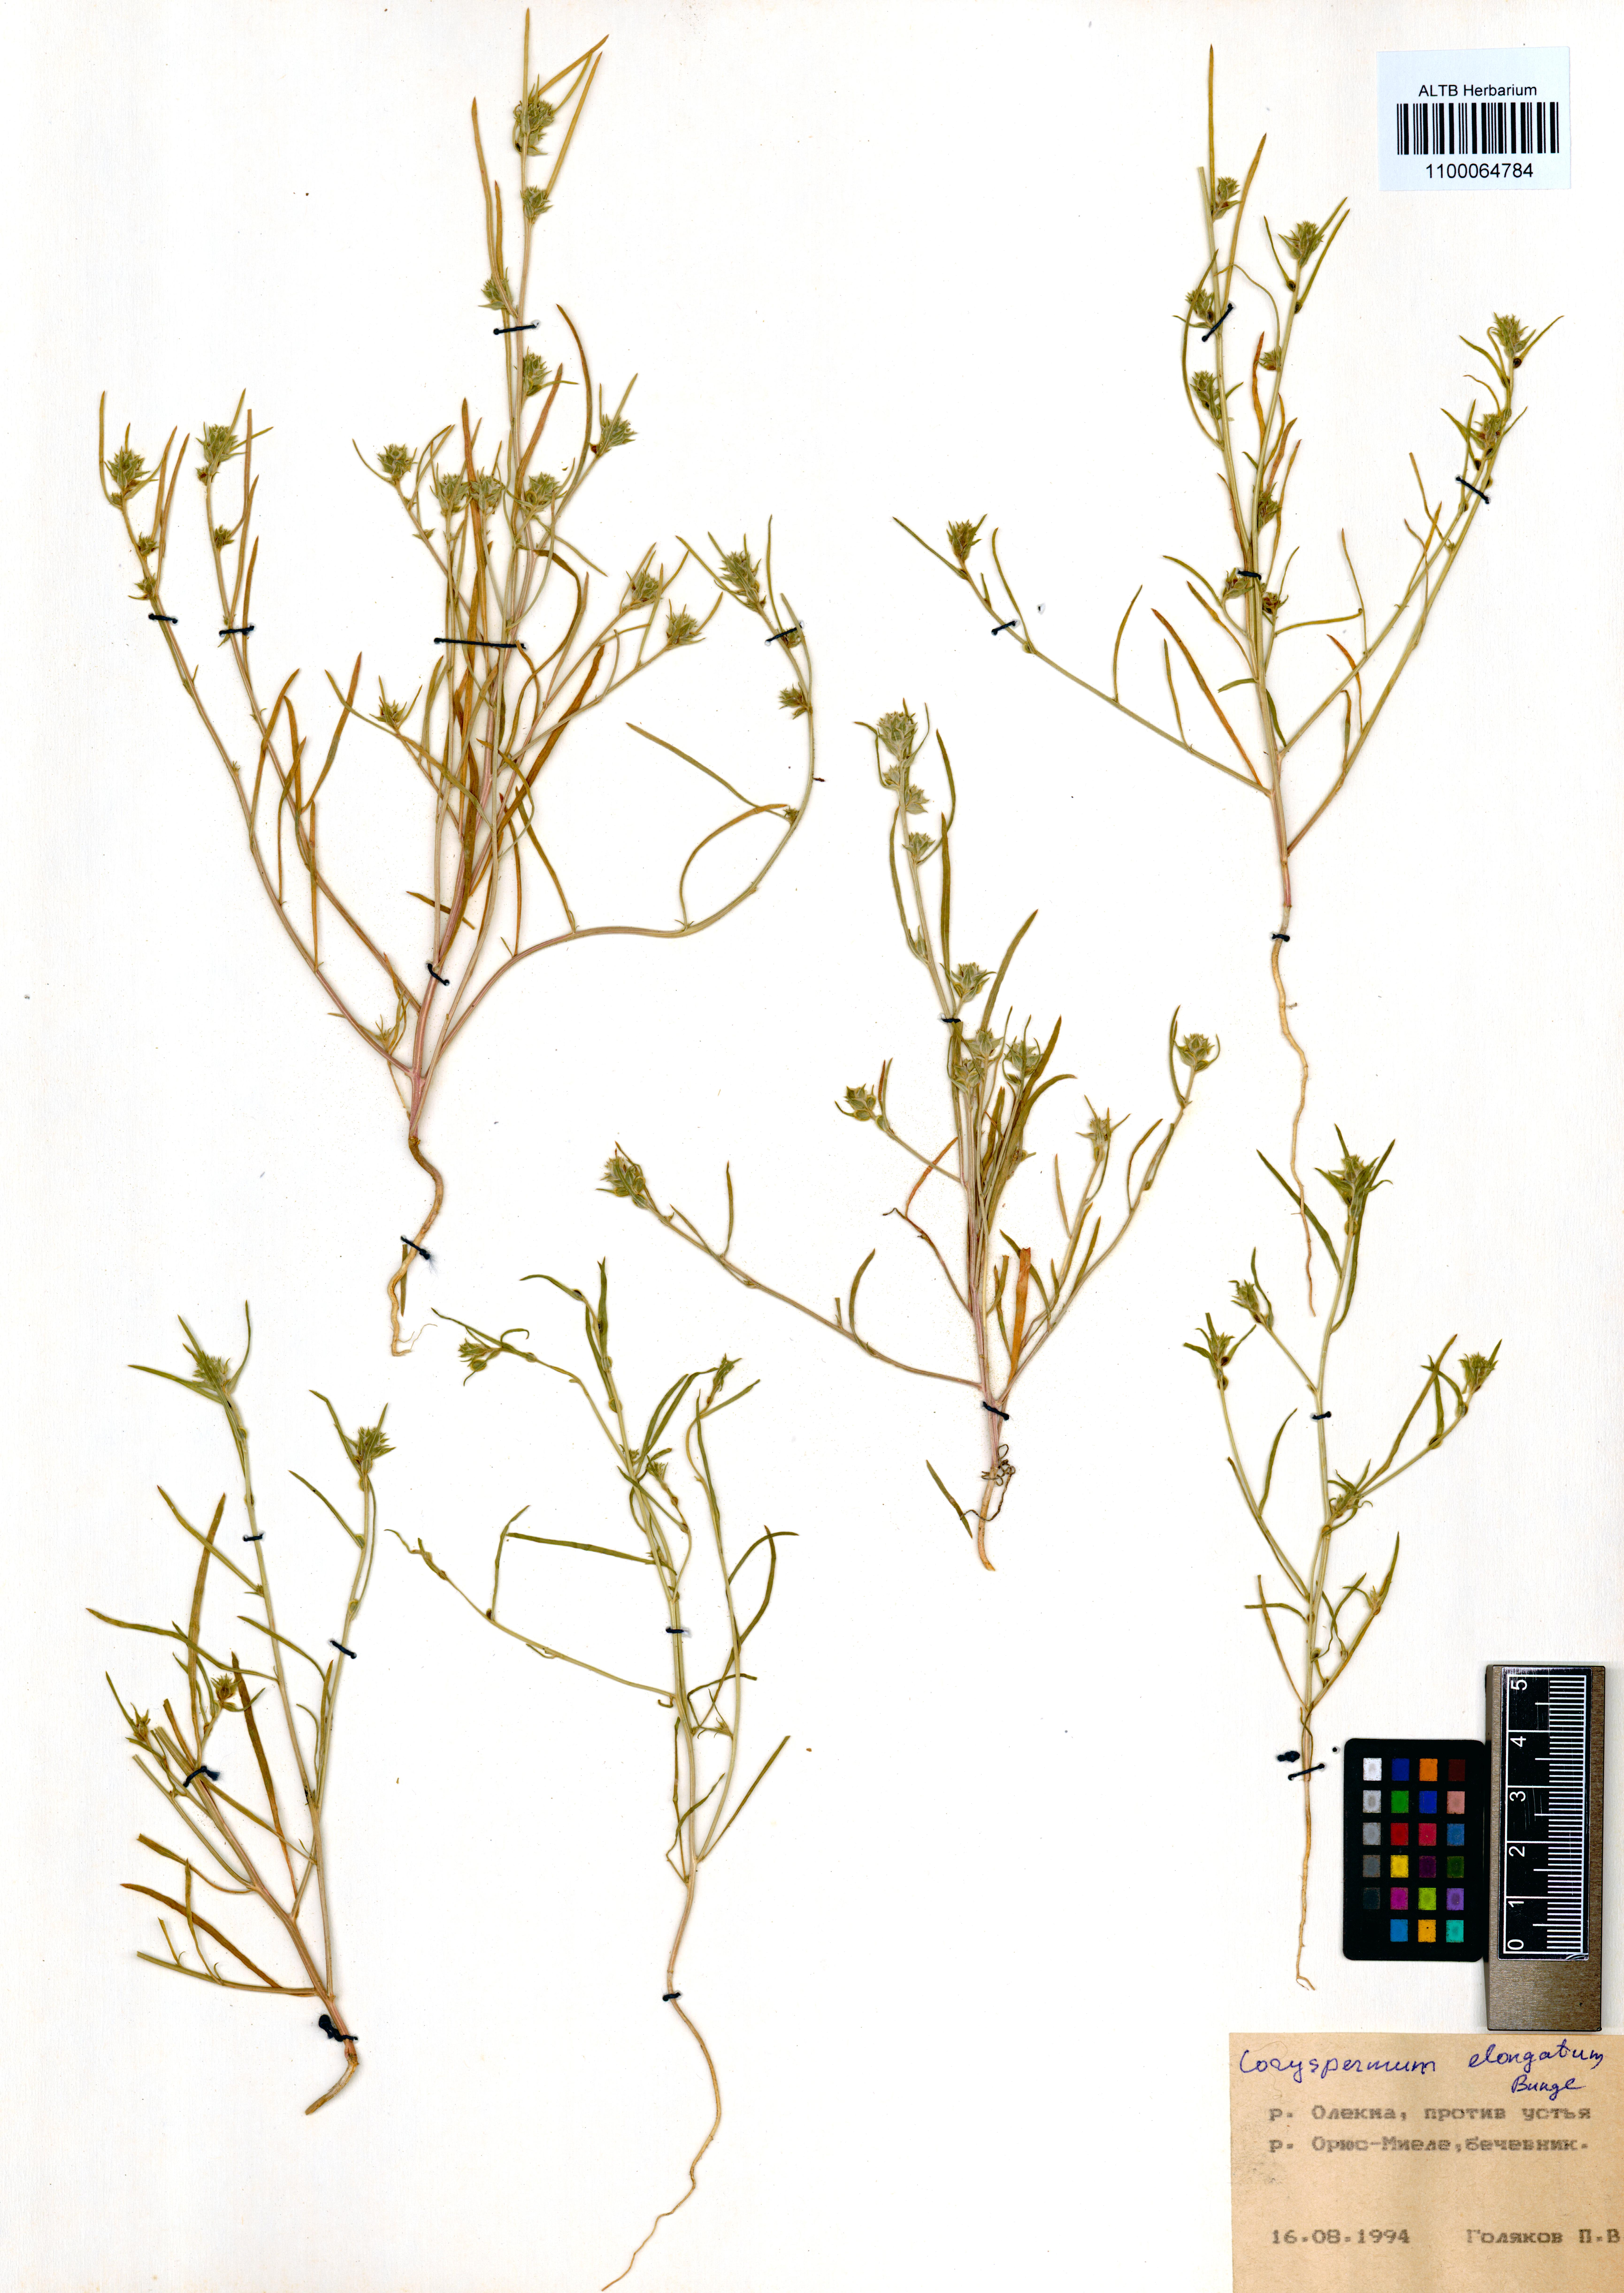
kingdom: Plantae
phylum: Tracheophyta
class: Magnoliopsida
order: Caryophyllales
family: Amaranthaceae
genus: Corispermum
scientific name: Corispermum elongatum
